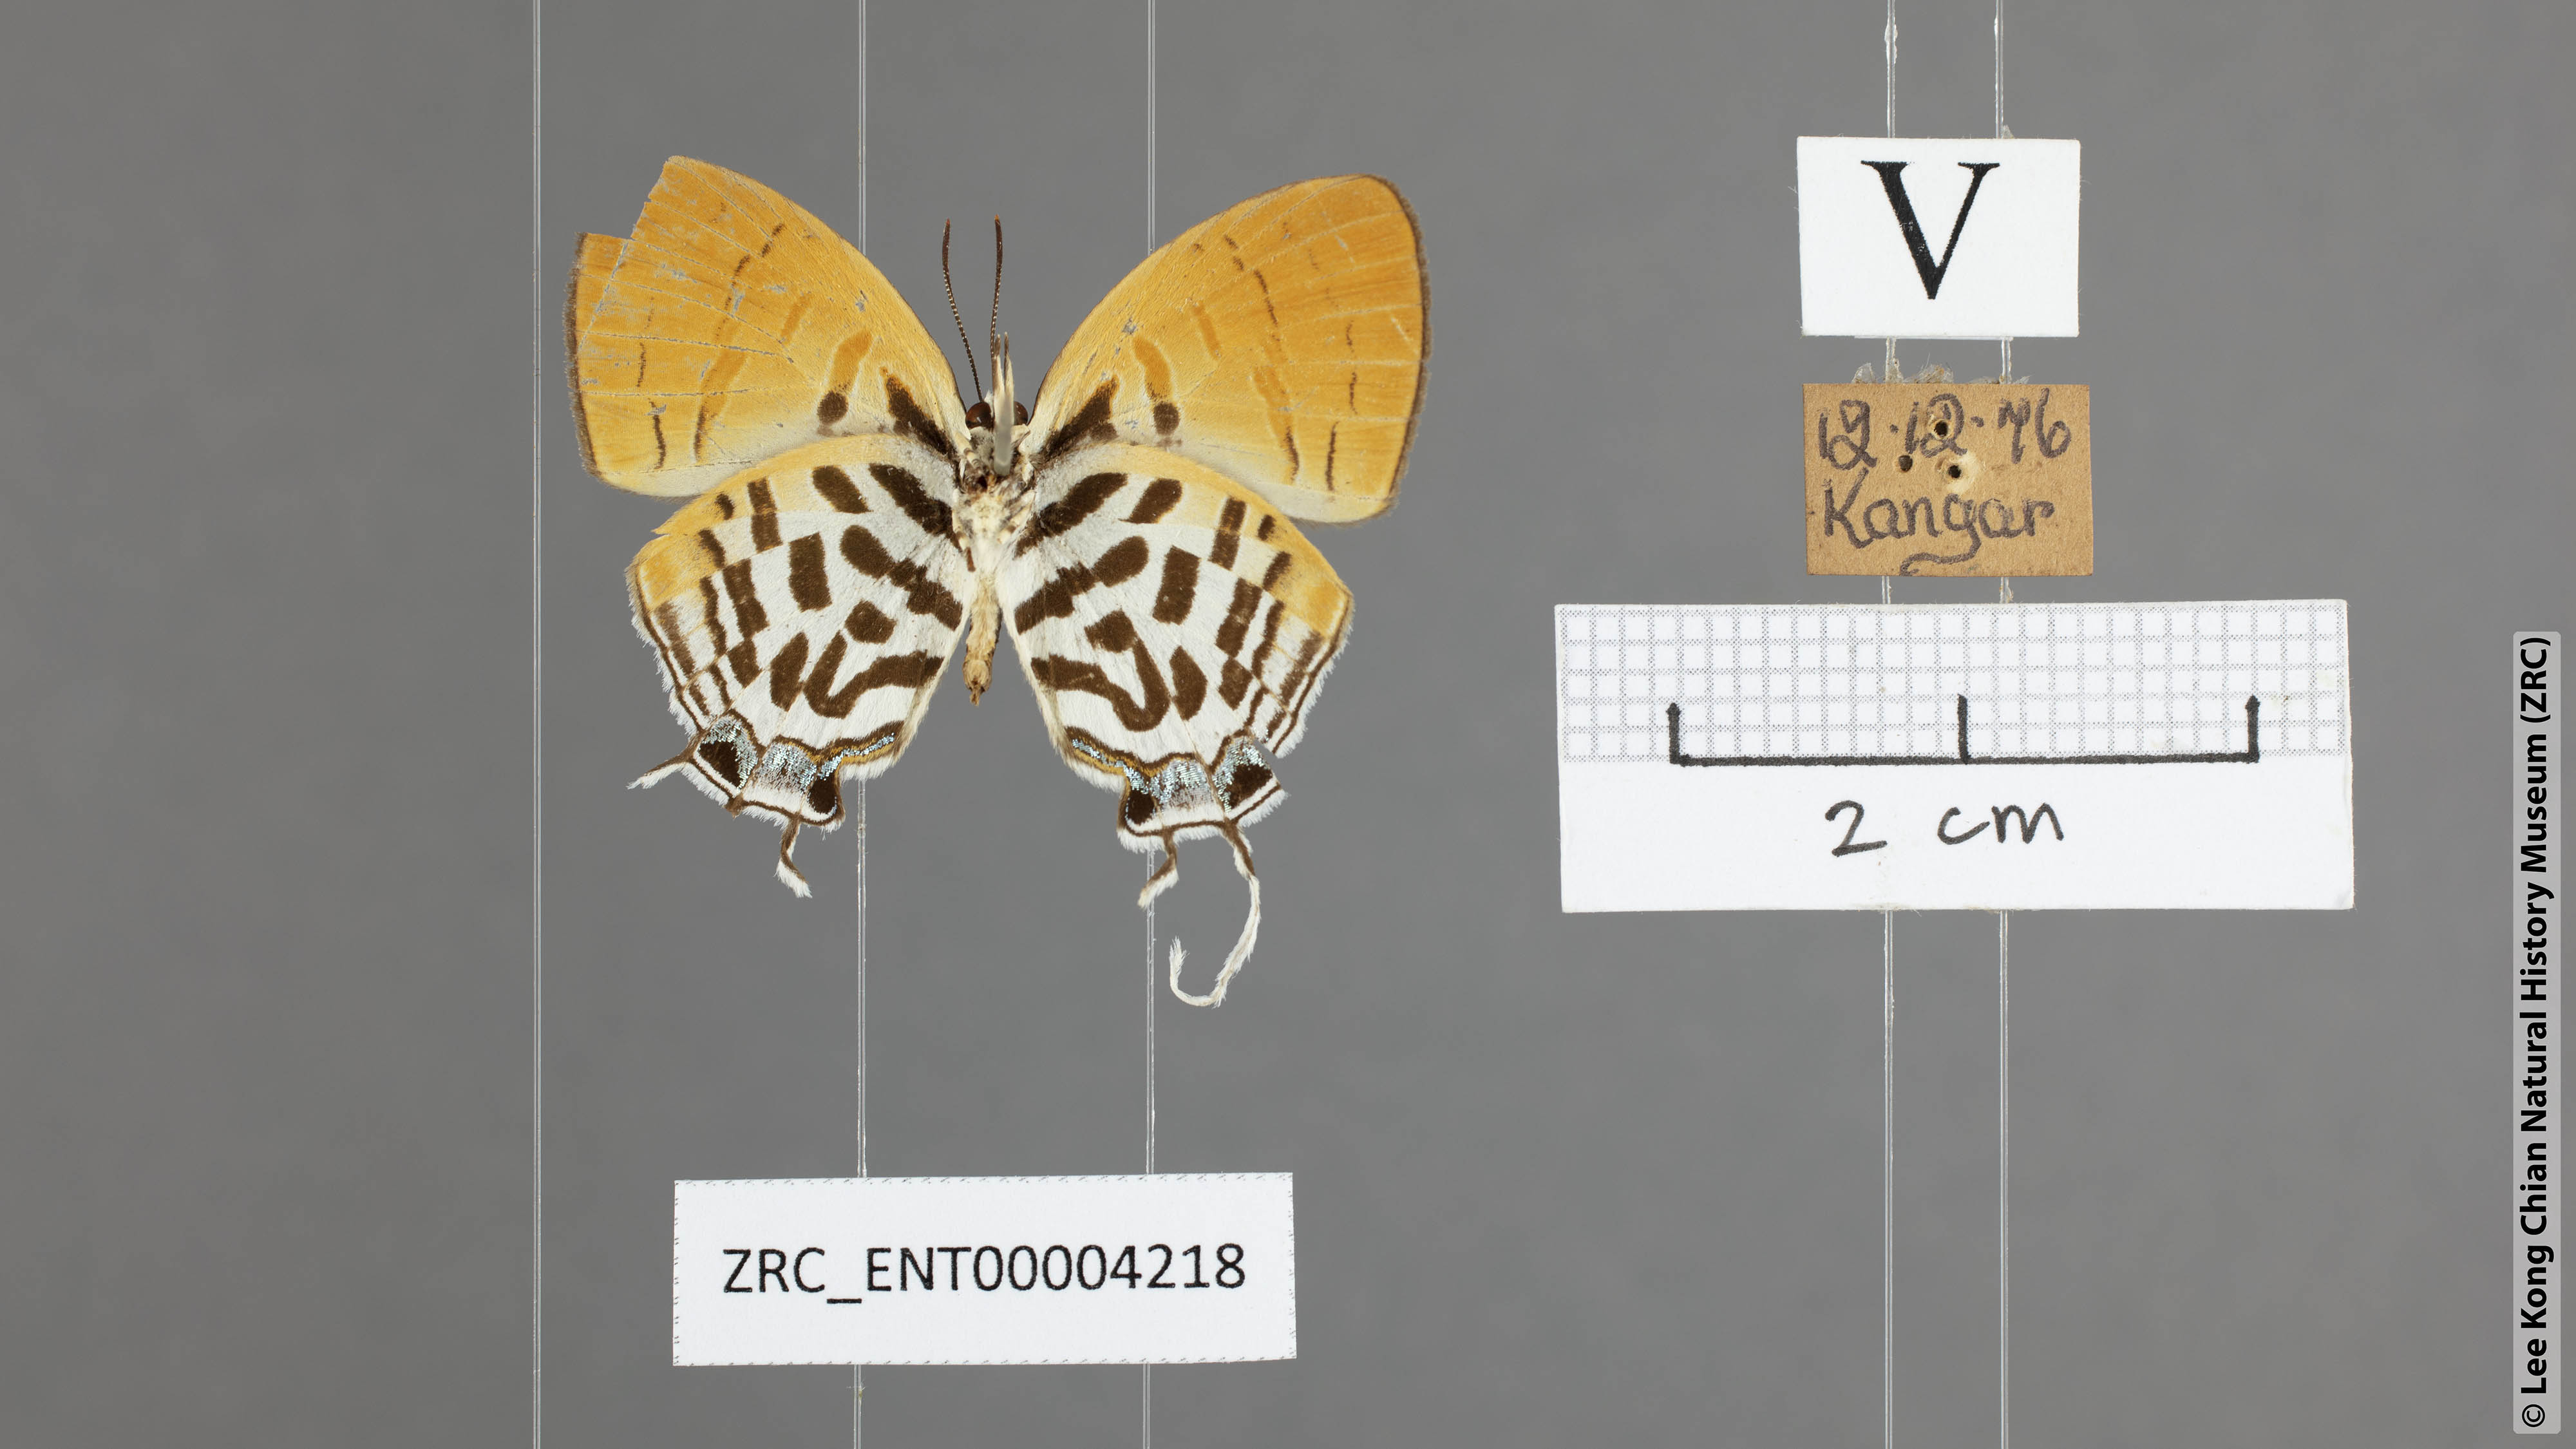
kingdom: Animalia
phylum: Arthropoda
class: Insecta
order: Lepidoptera
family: Lycaenidae
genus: Drupadia
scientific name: Drupadia ravindra
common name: Common posy
